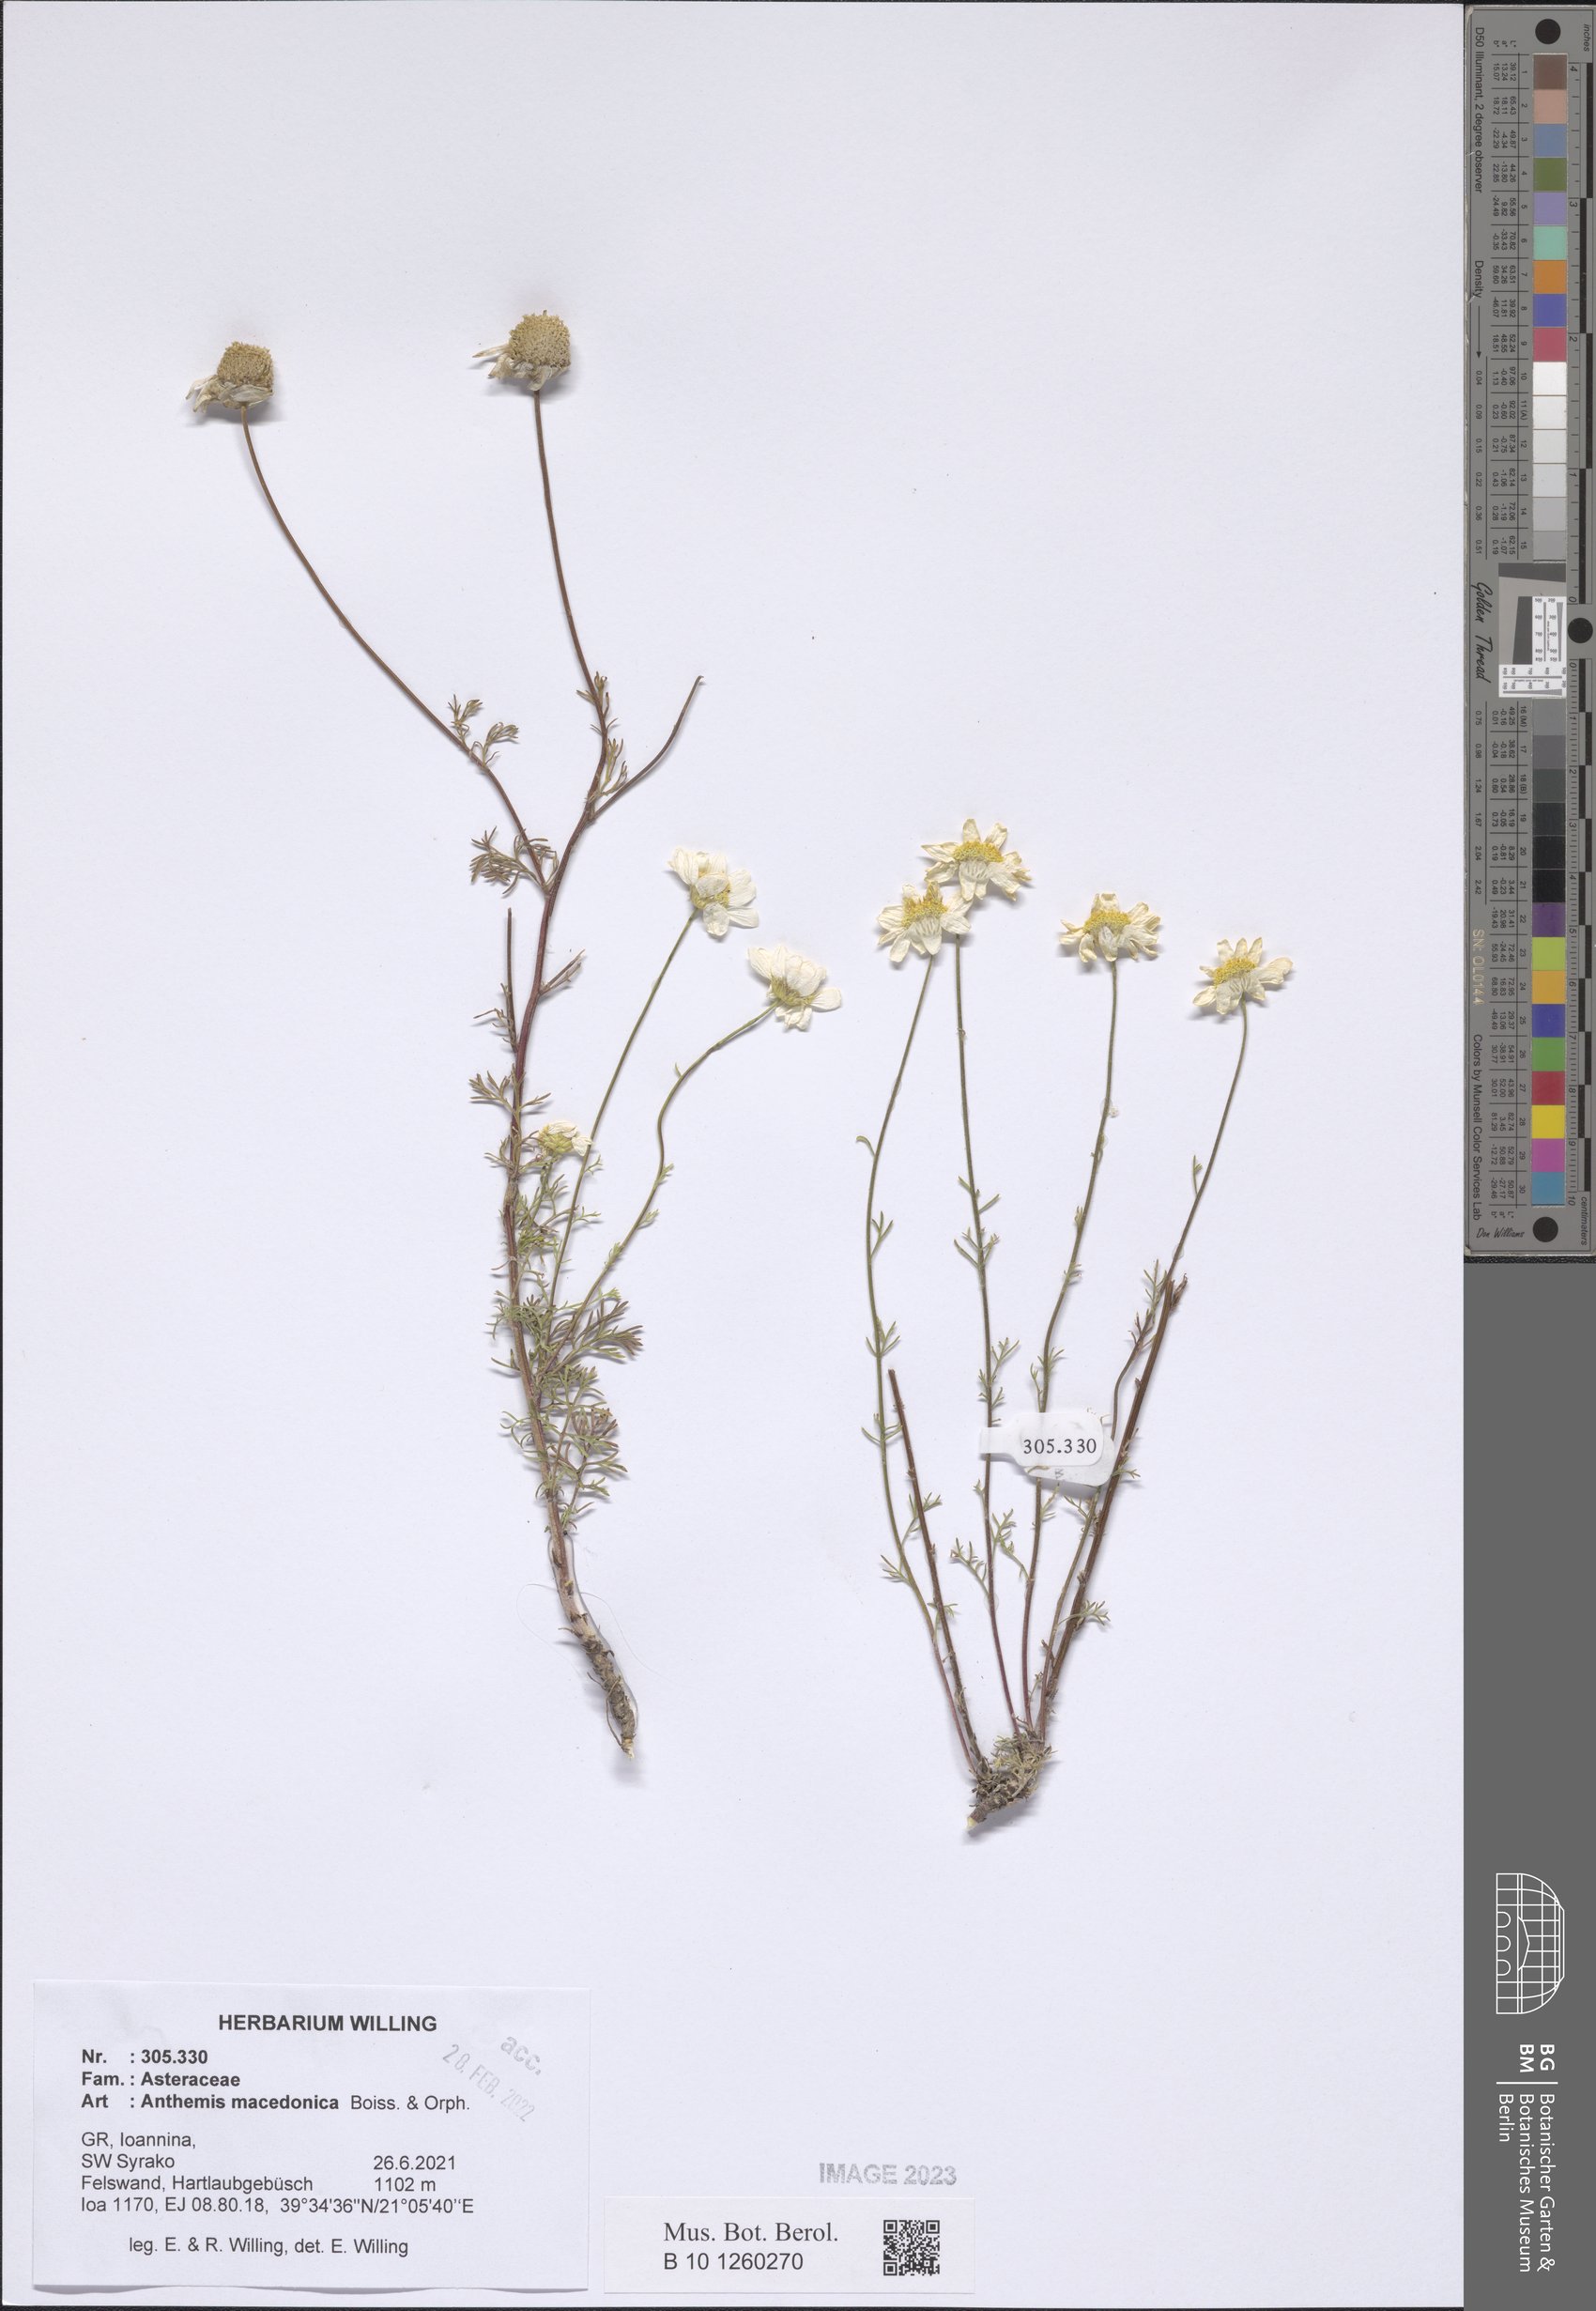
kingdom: Plantae
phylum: Tracheophyta
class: Magnoliopsida
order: Asterales
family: Asteraceae
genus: Anthemis
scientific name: Anthemis macedonica
